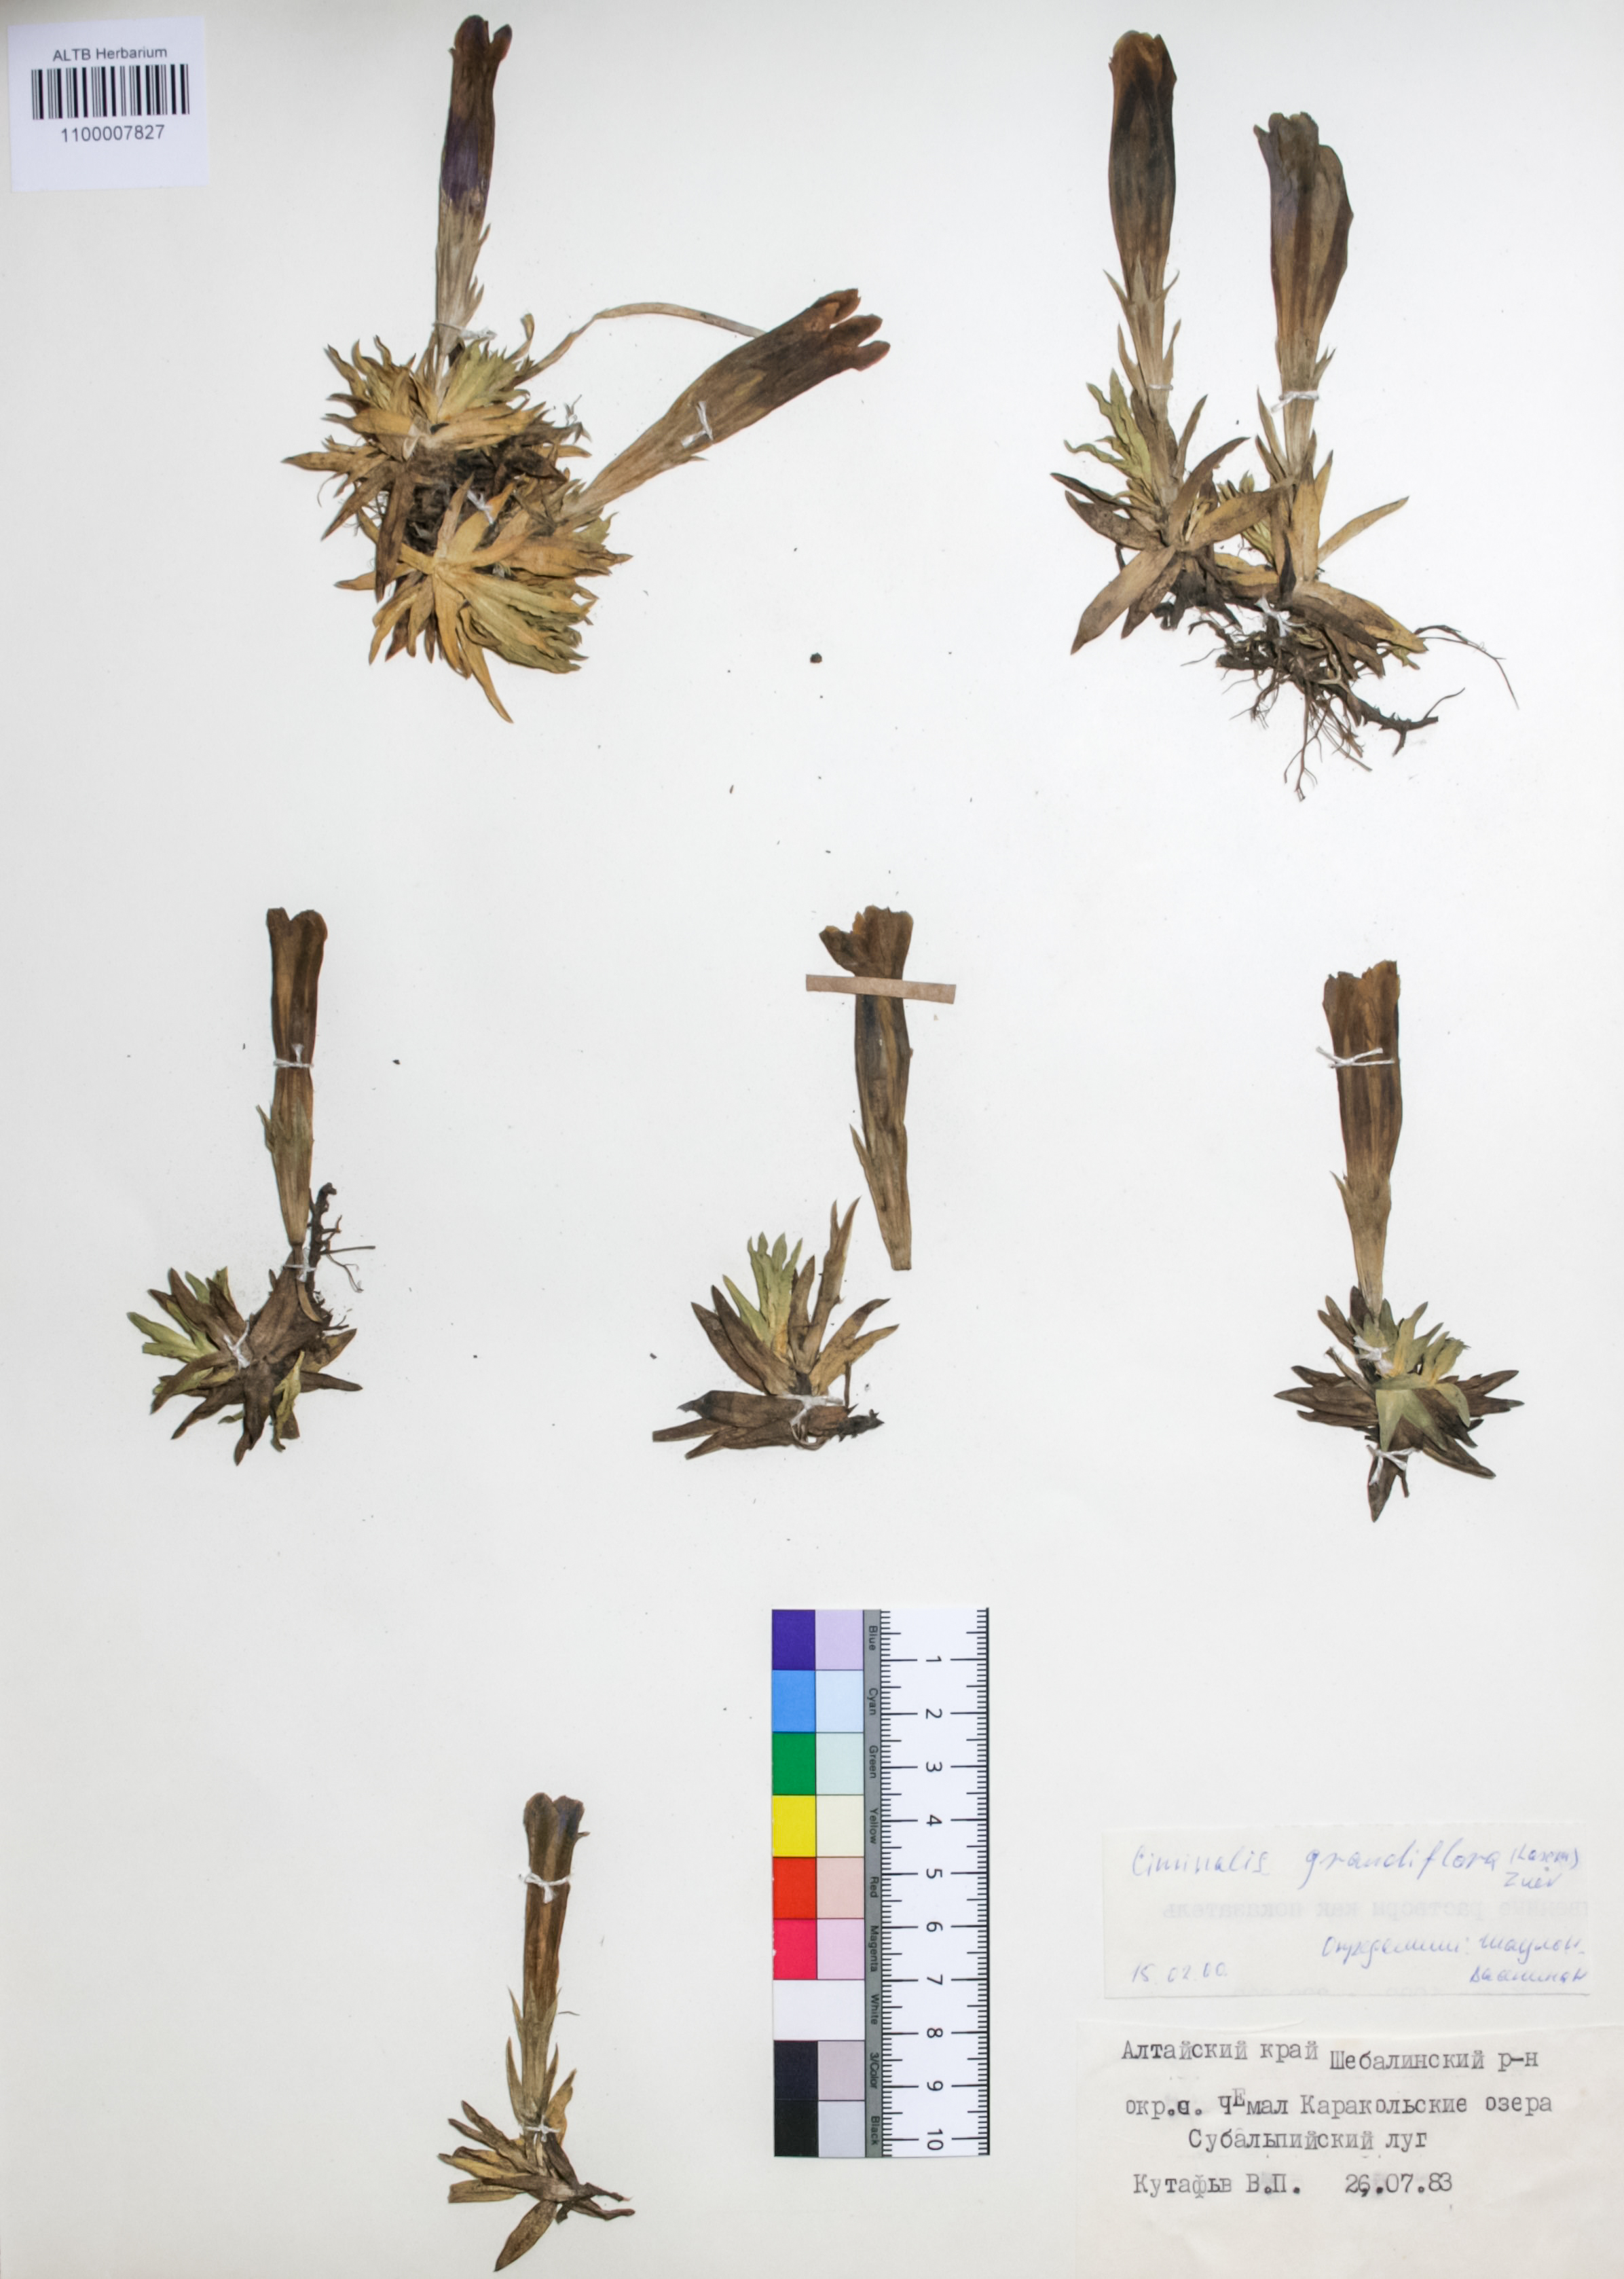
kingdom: Plantae
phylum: Tracheophyta
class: Magnoliopsida
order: Gentianales
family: Gentianaceae
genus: Gentiana
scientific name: Gentiana grandiflora
